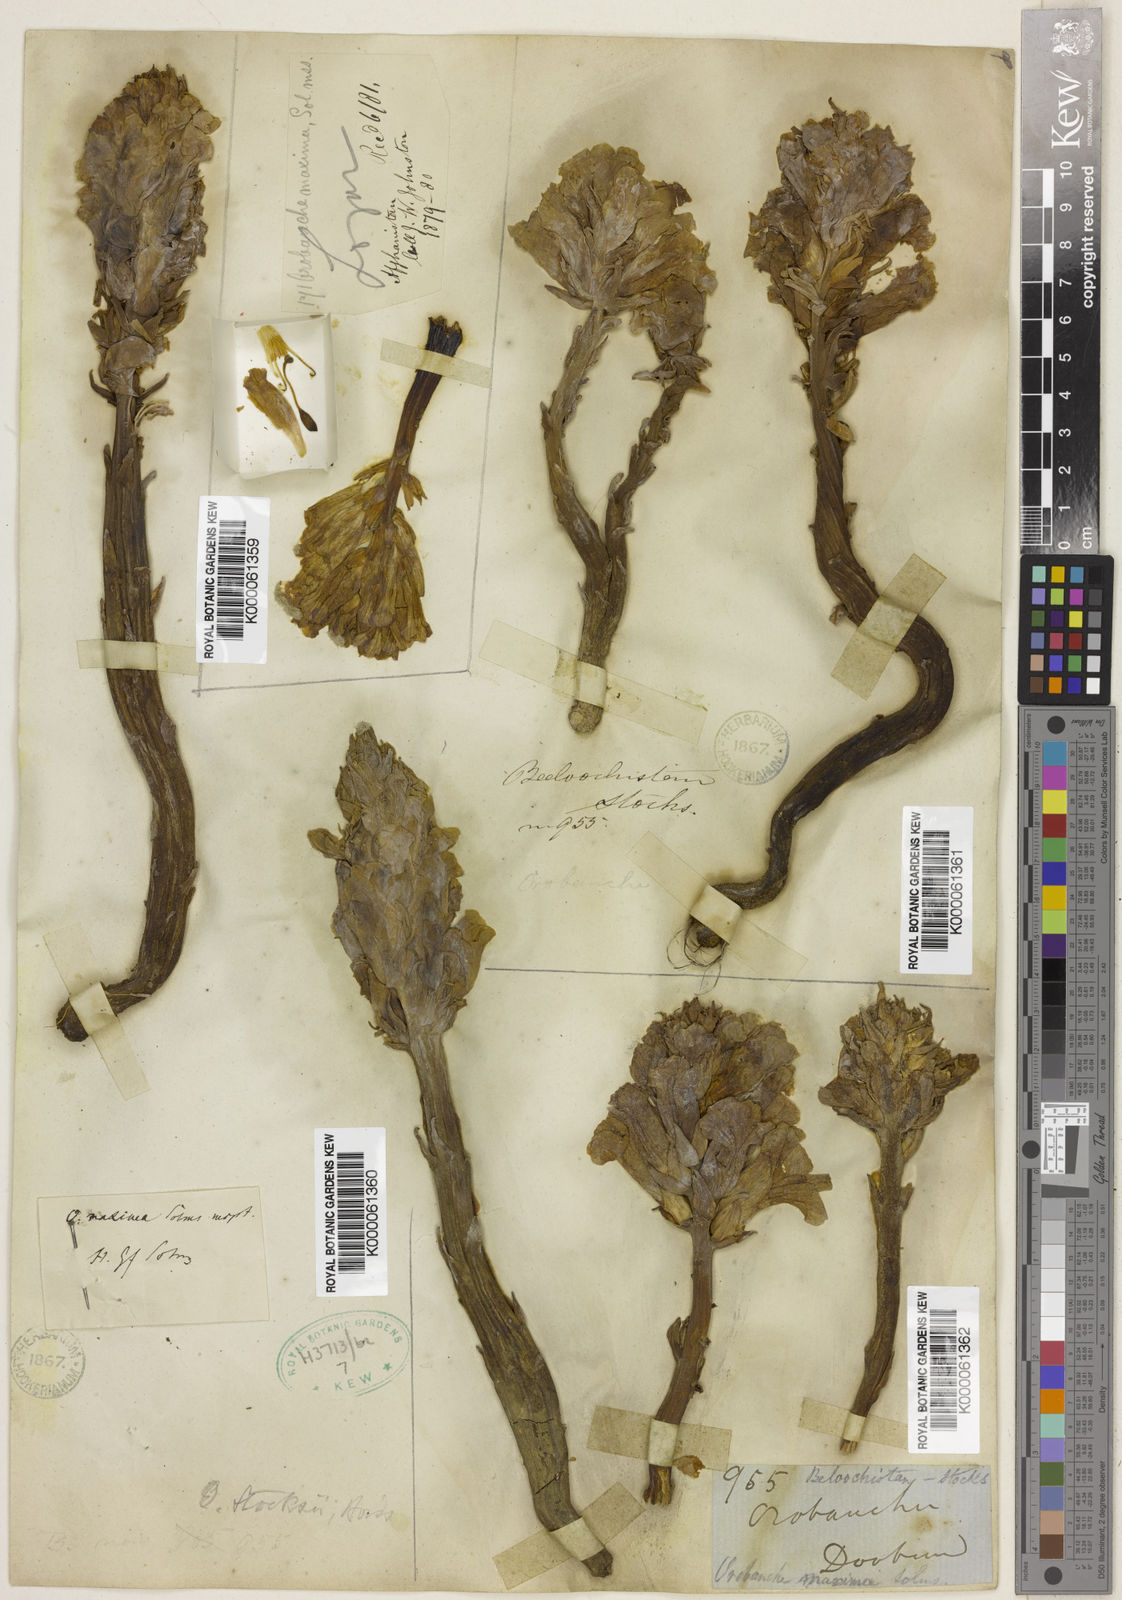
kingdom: Plantae
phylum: Tracheophyta
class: Magnoliopsida
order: Lamiales
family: Orobanchaceae
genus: Orobanche
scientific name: Orobanche stocksii
